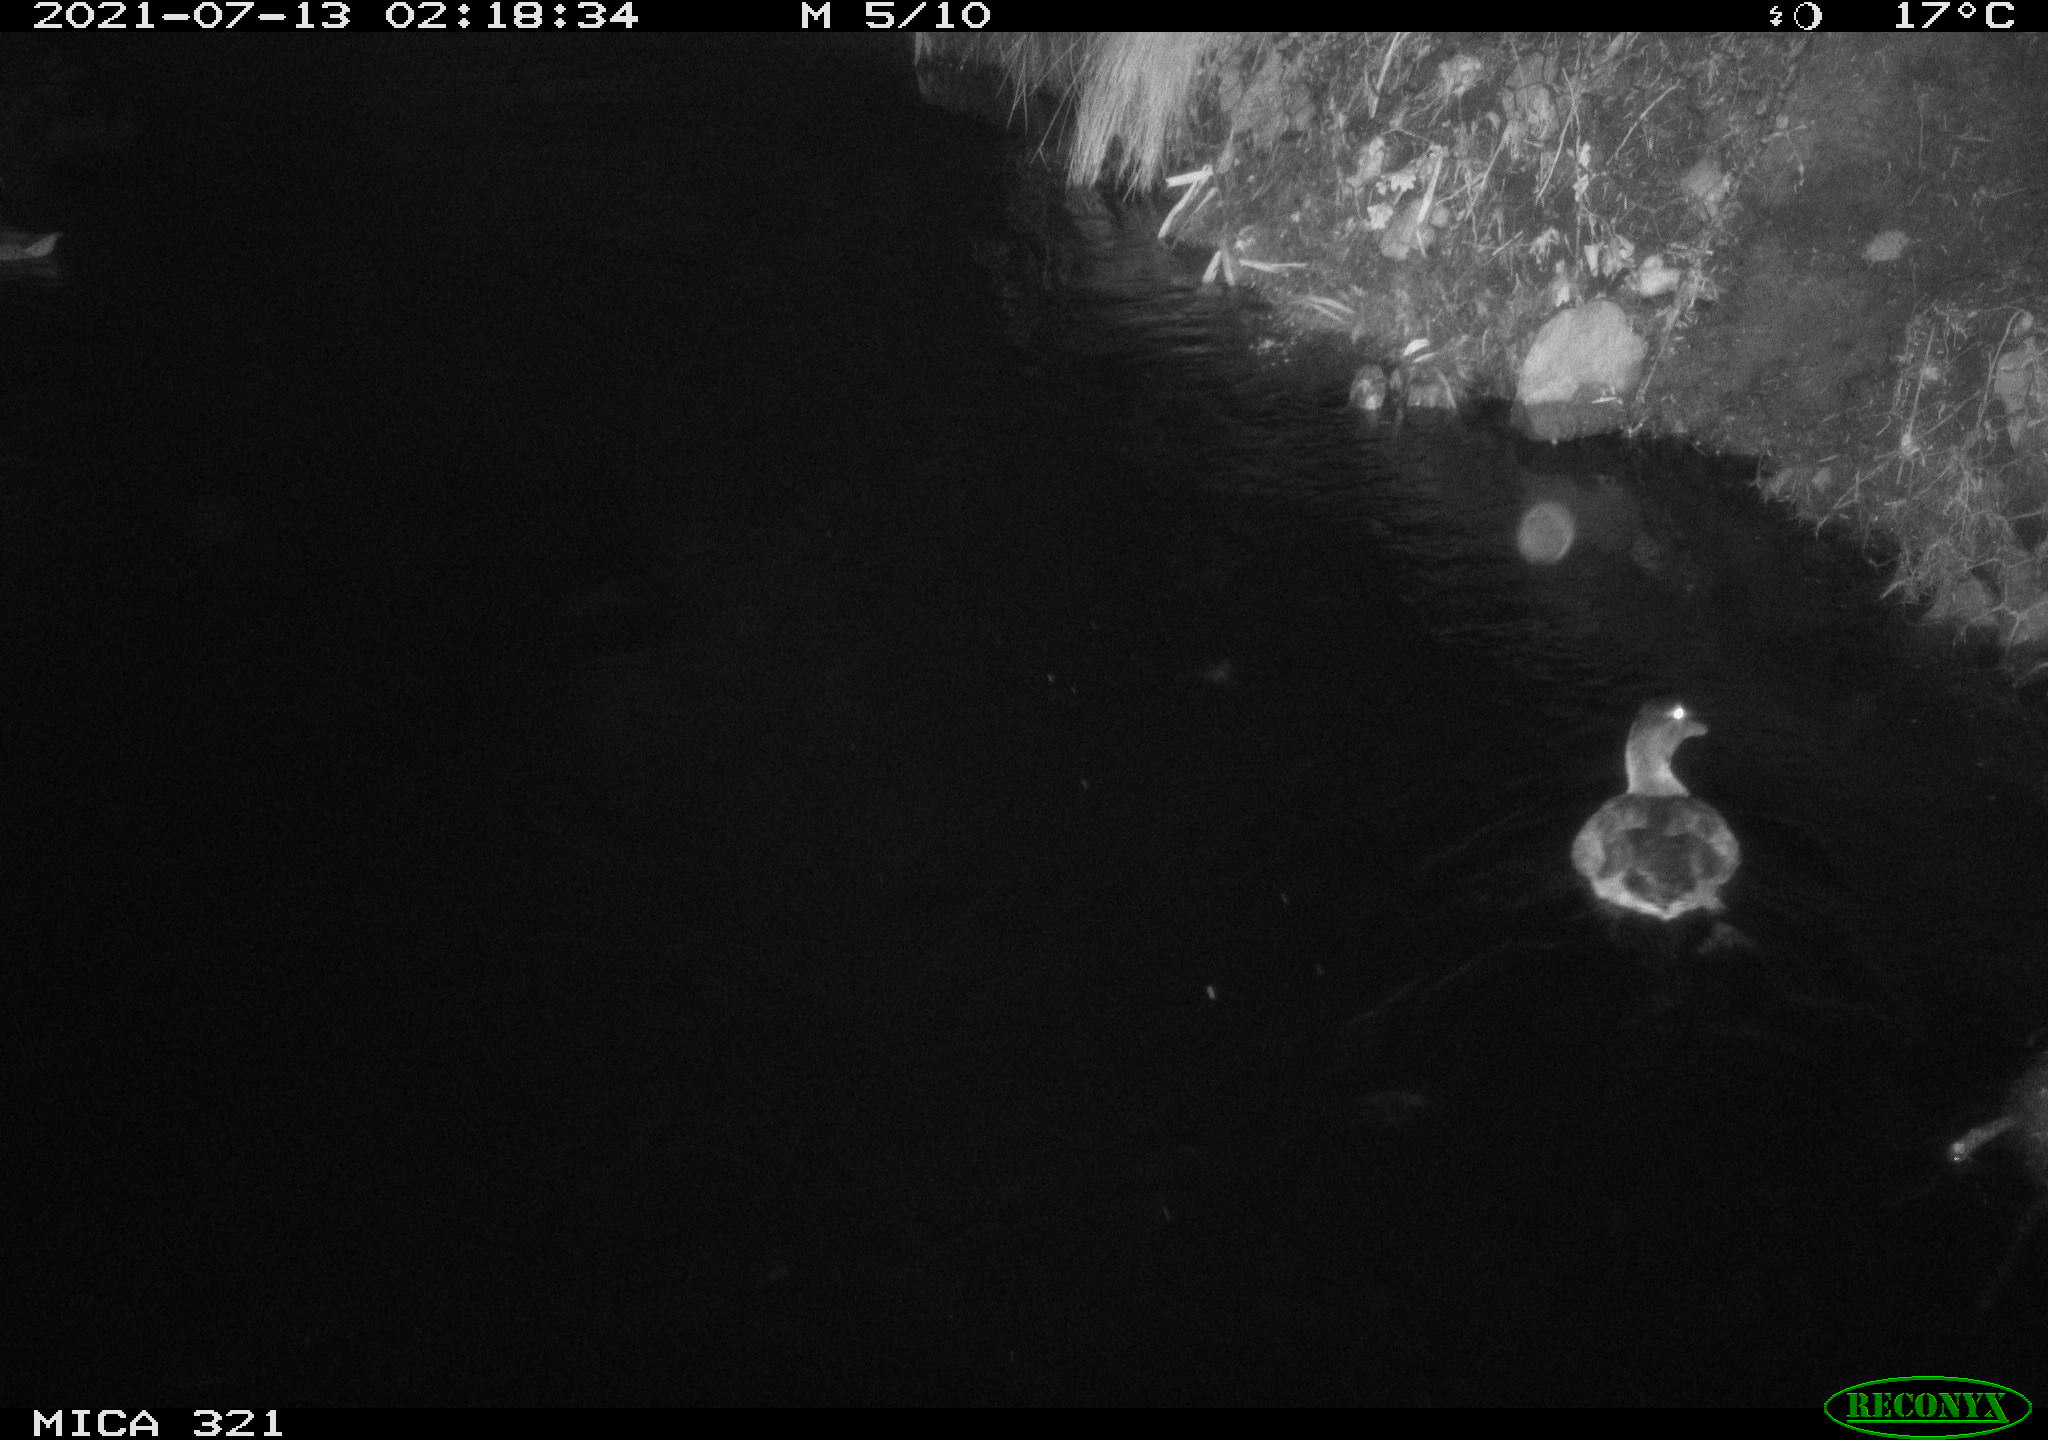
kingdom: Animalia
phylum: Chordata
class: Aves
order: Anseriformes
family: Anatidae
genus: Anas
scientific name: Anas platyrhynchos
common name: Mallard
